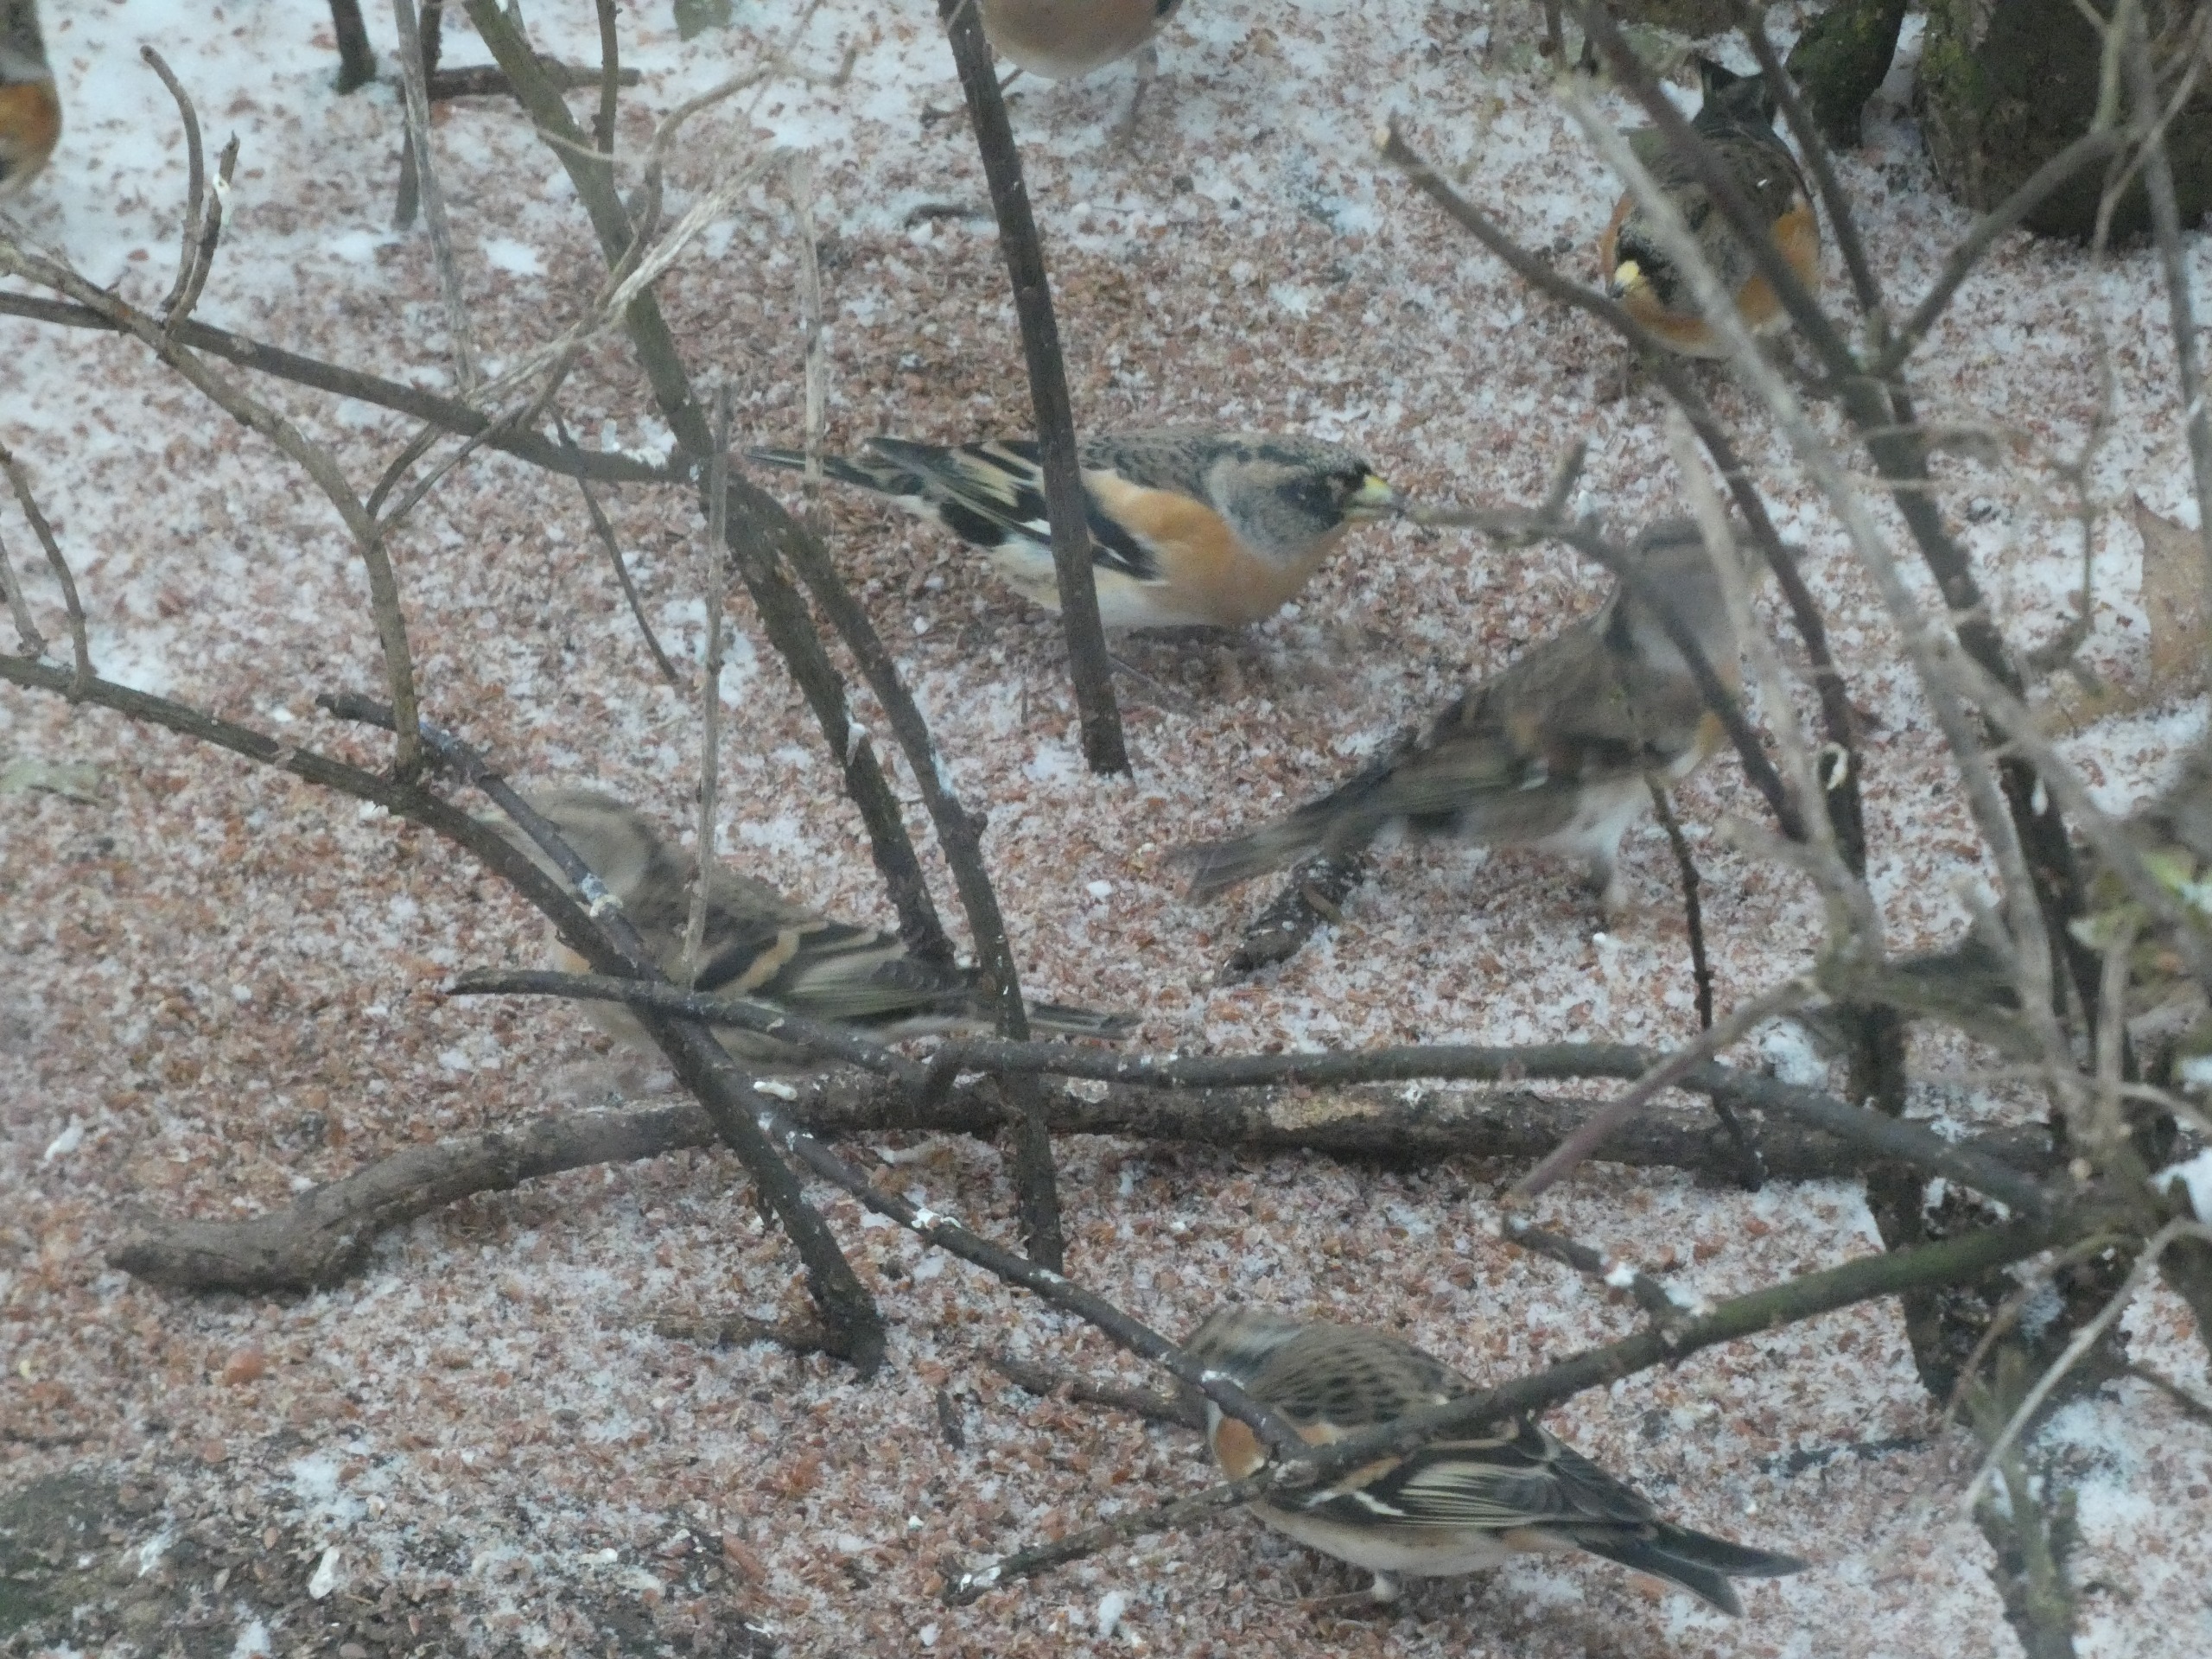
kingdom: Animalia
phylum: Chordata
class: Aves
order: Passeriformes
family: Fringillidae
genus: Fringilla
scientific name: Fringilla montifringilla
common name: Kvækerfinke
